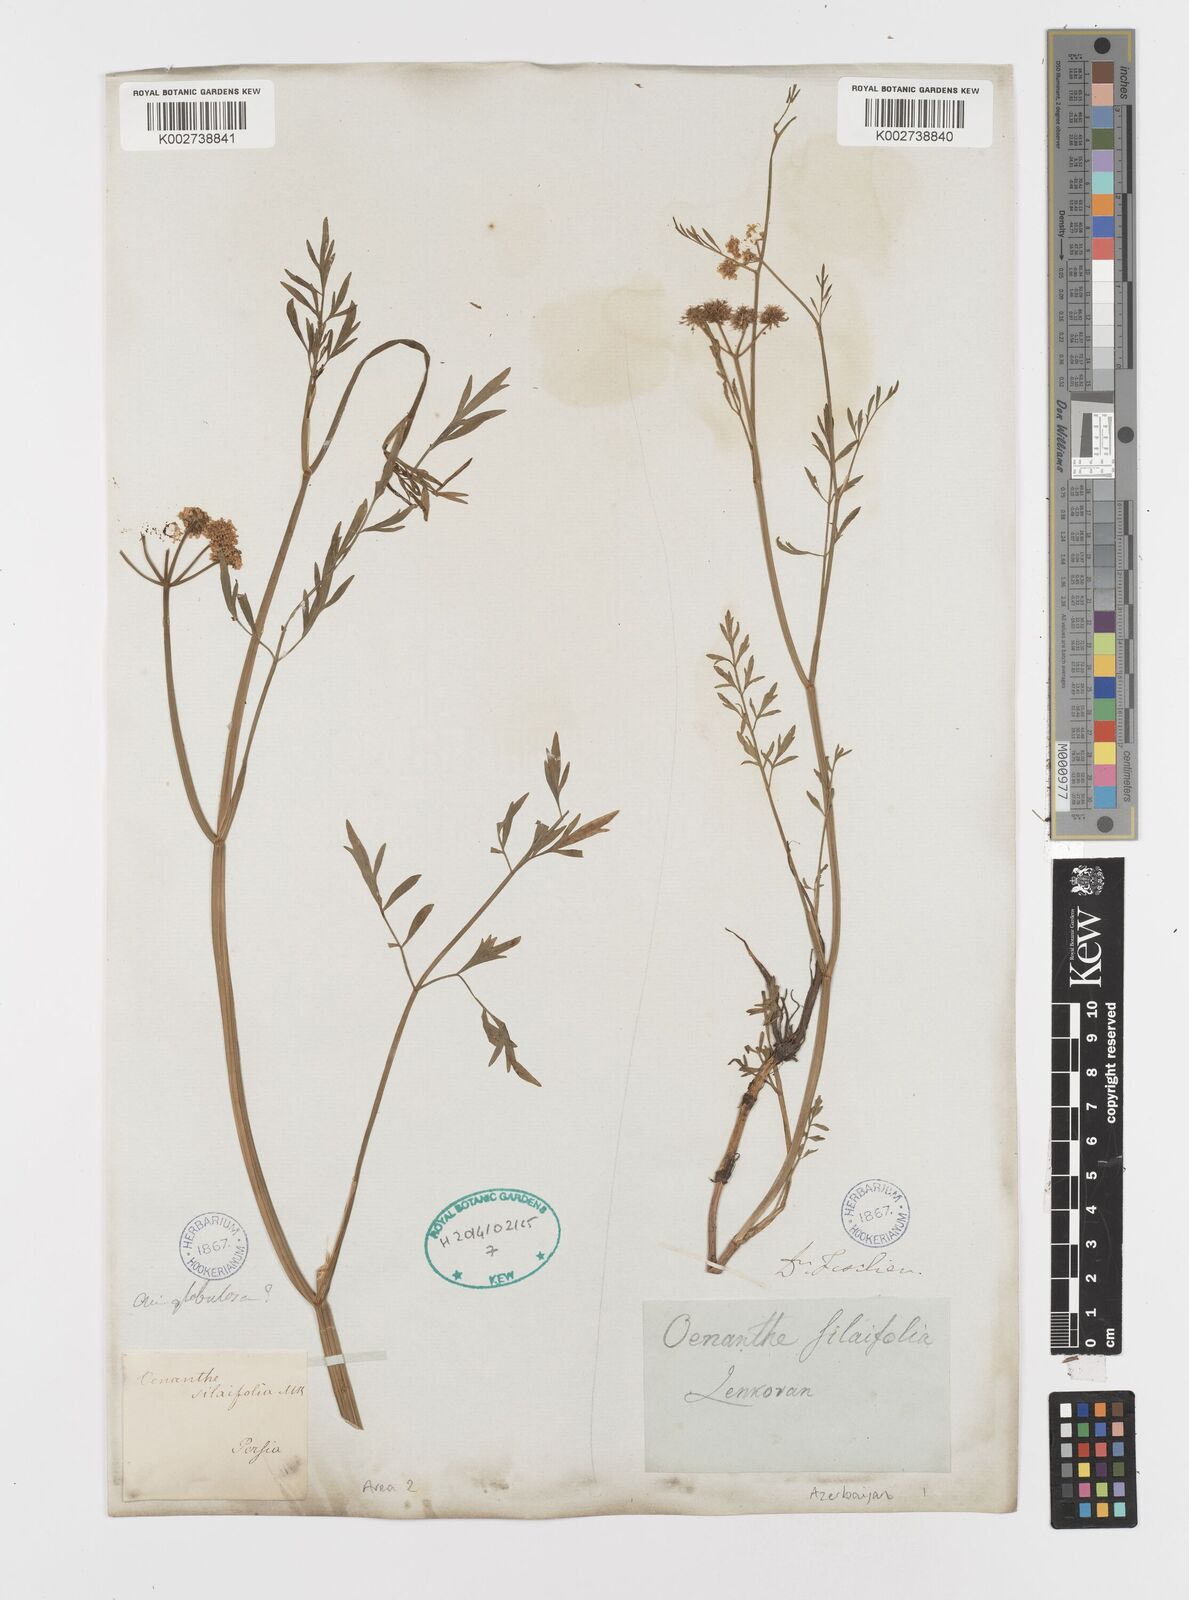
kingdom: Plantae
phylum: Tracheophyta
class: Magnoliopsida
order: Apiales
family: Apiaceae
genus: Oenanthe
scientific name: Oenanthe silaifolia
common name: Narrow-leaved water-dropwort
